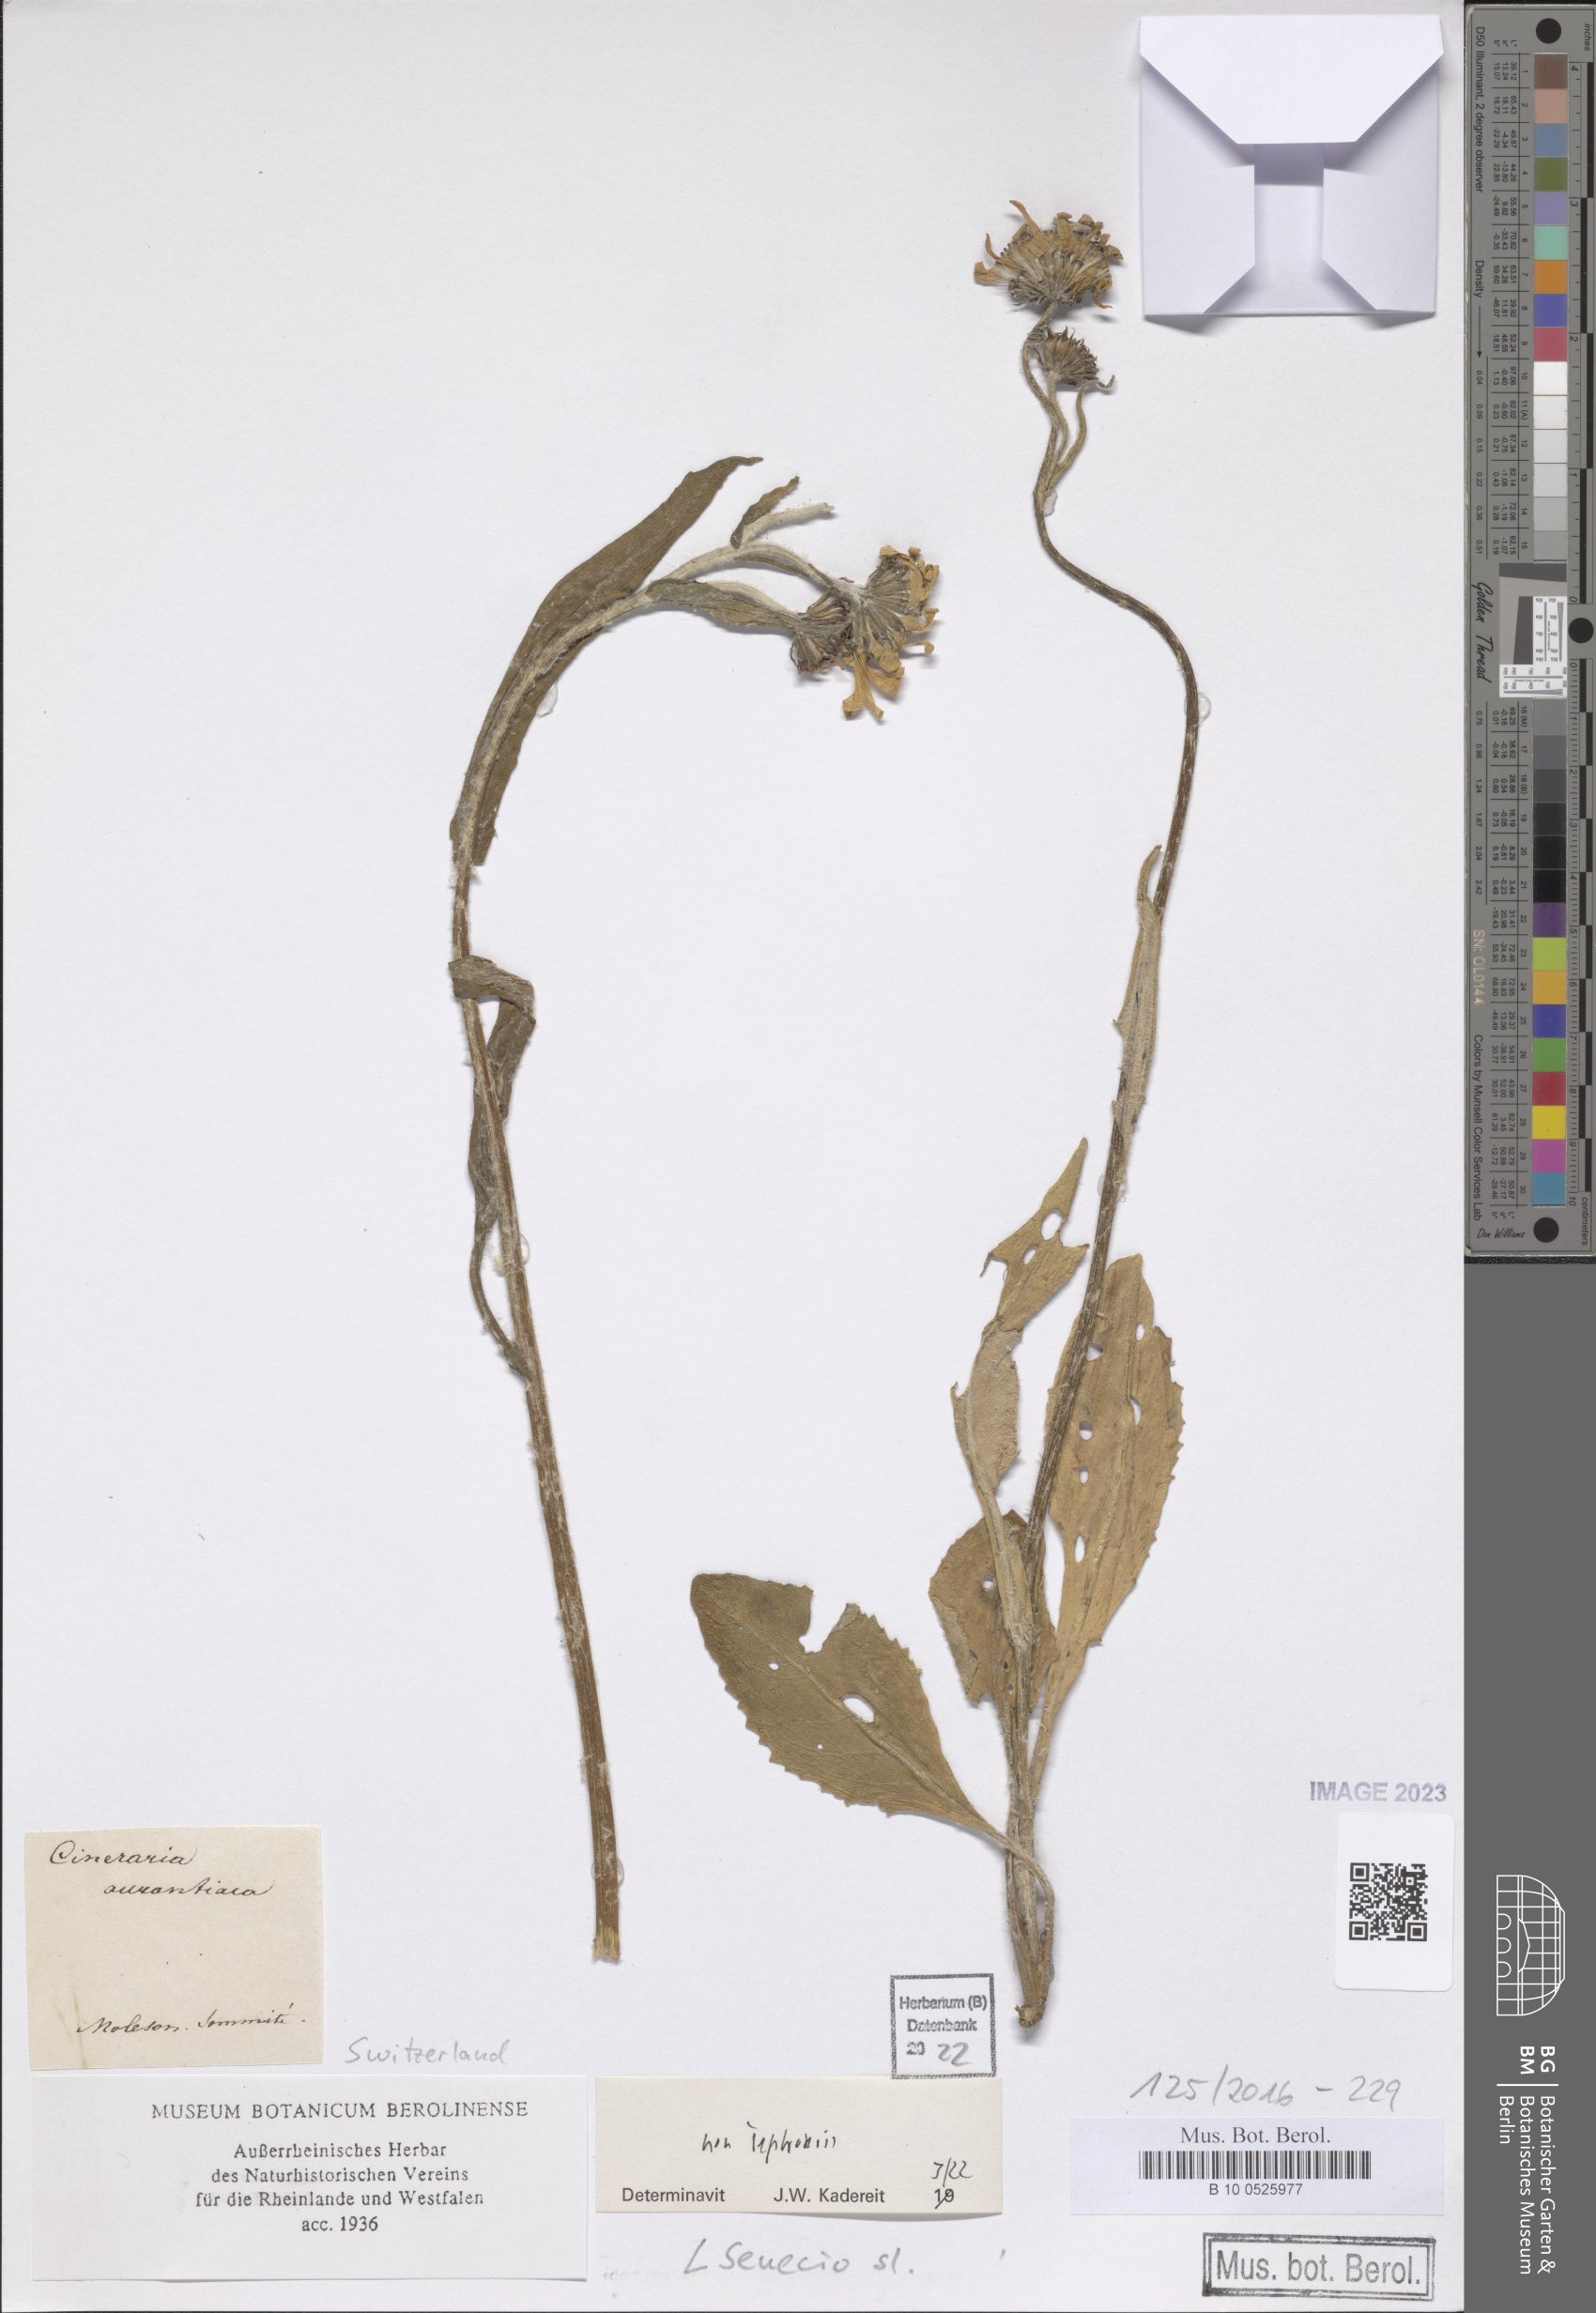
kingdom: Plantae
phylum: Tracheophyta
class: Magnoliopsida
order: Asterales
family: Asteraceae
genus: Senecio
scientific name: Senecio
